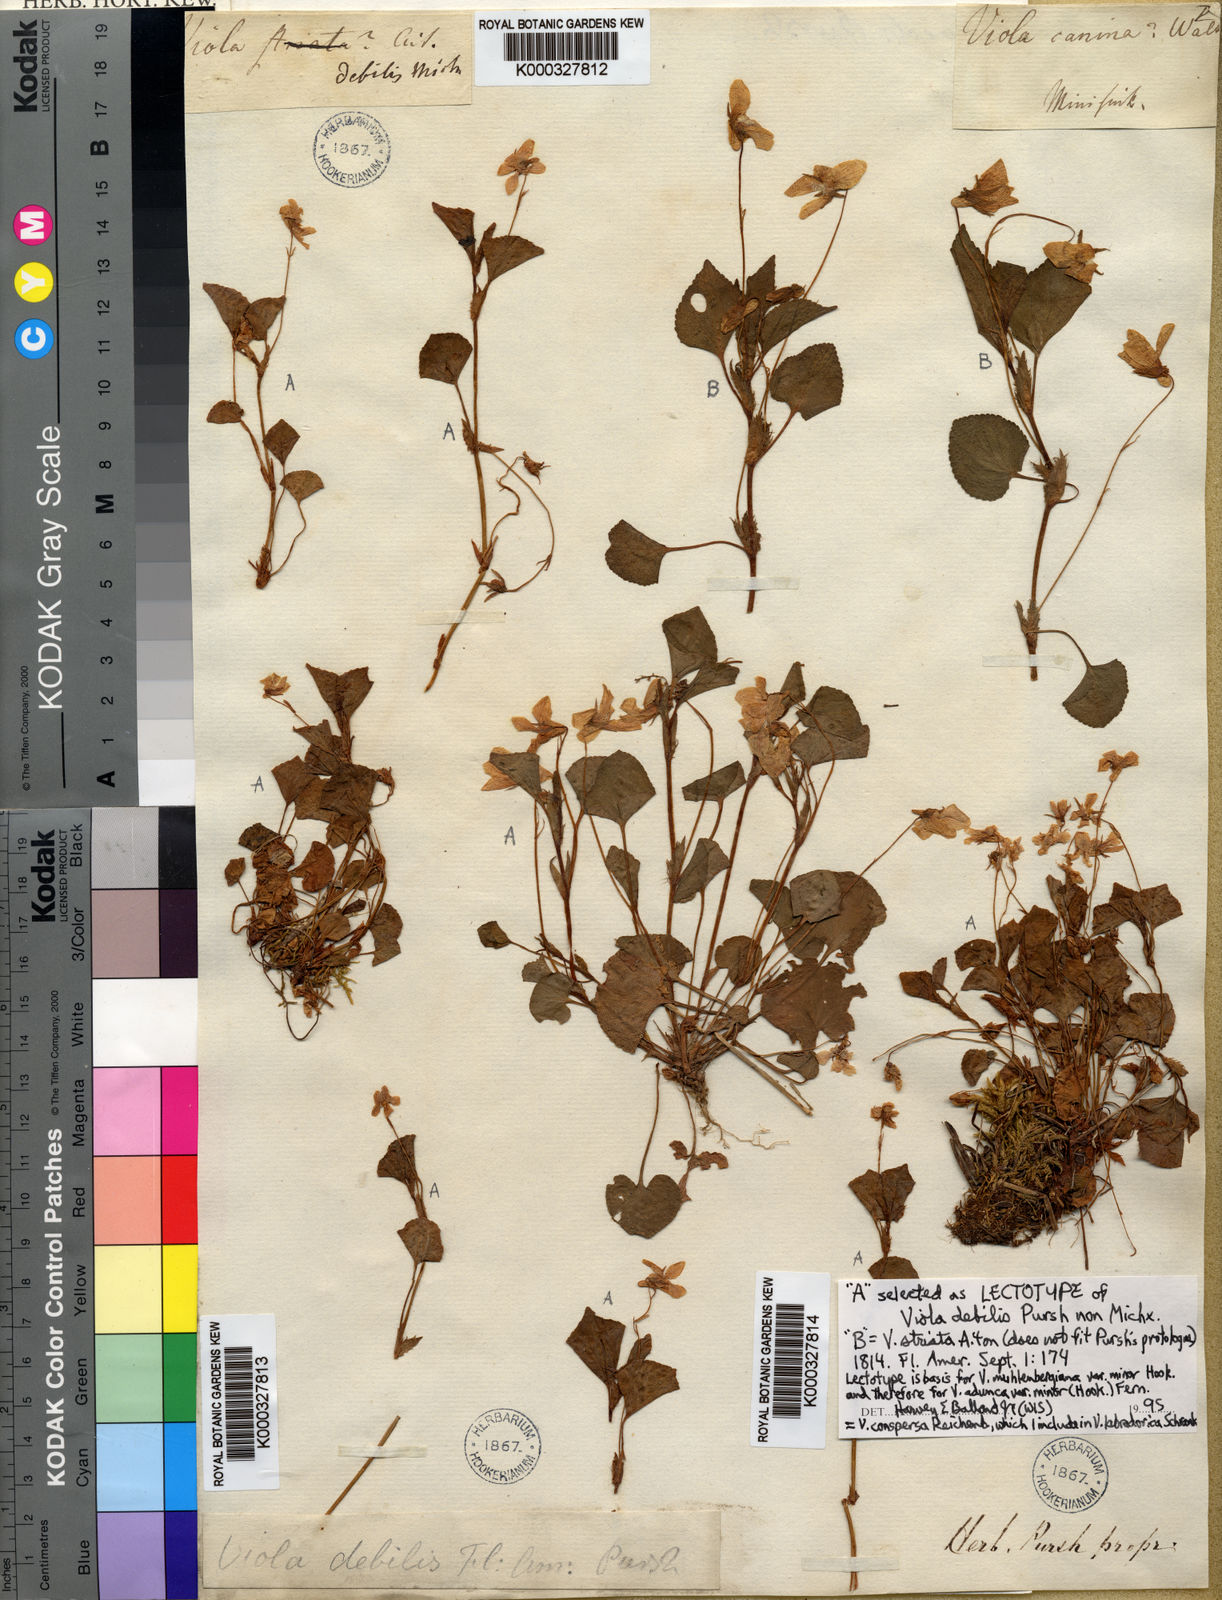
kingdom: Plantae
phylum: Tracheophyta
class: Magnoliopsida
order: Malpighiales
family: Violaceae
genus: Viola
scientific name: Viola debilis
